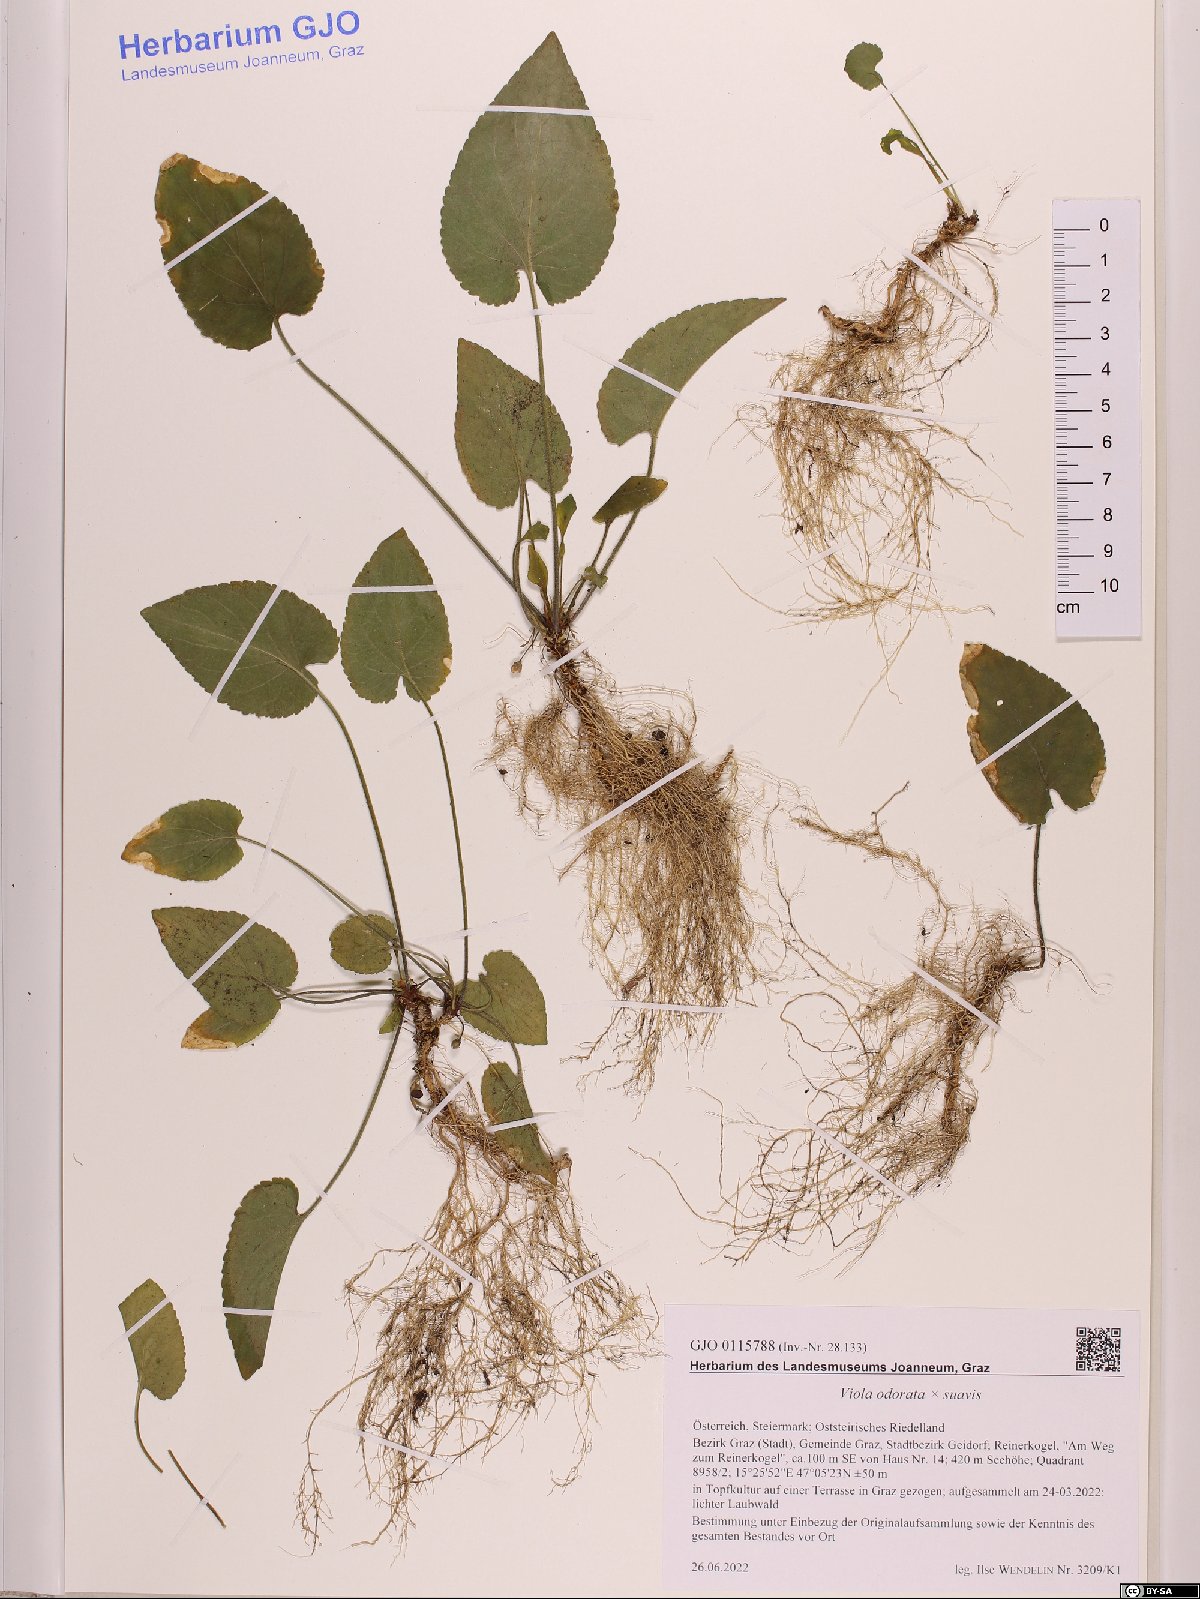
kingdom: Plantae
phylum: Tracheophyta
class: Magnoliopsida
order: Malpighiales
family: Violaceae
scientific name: Violaceae
